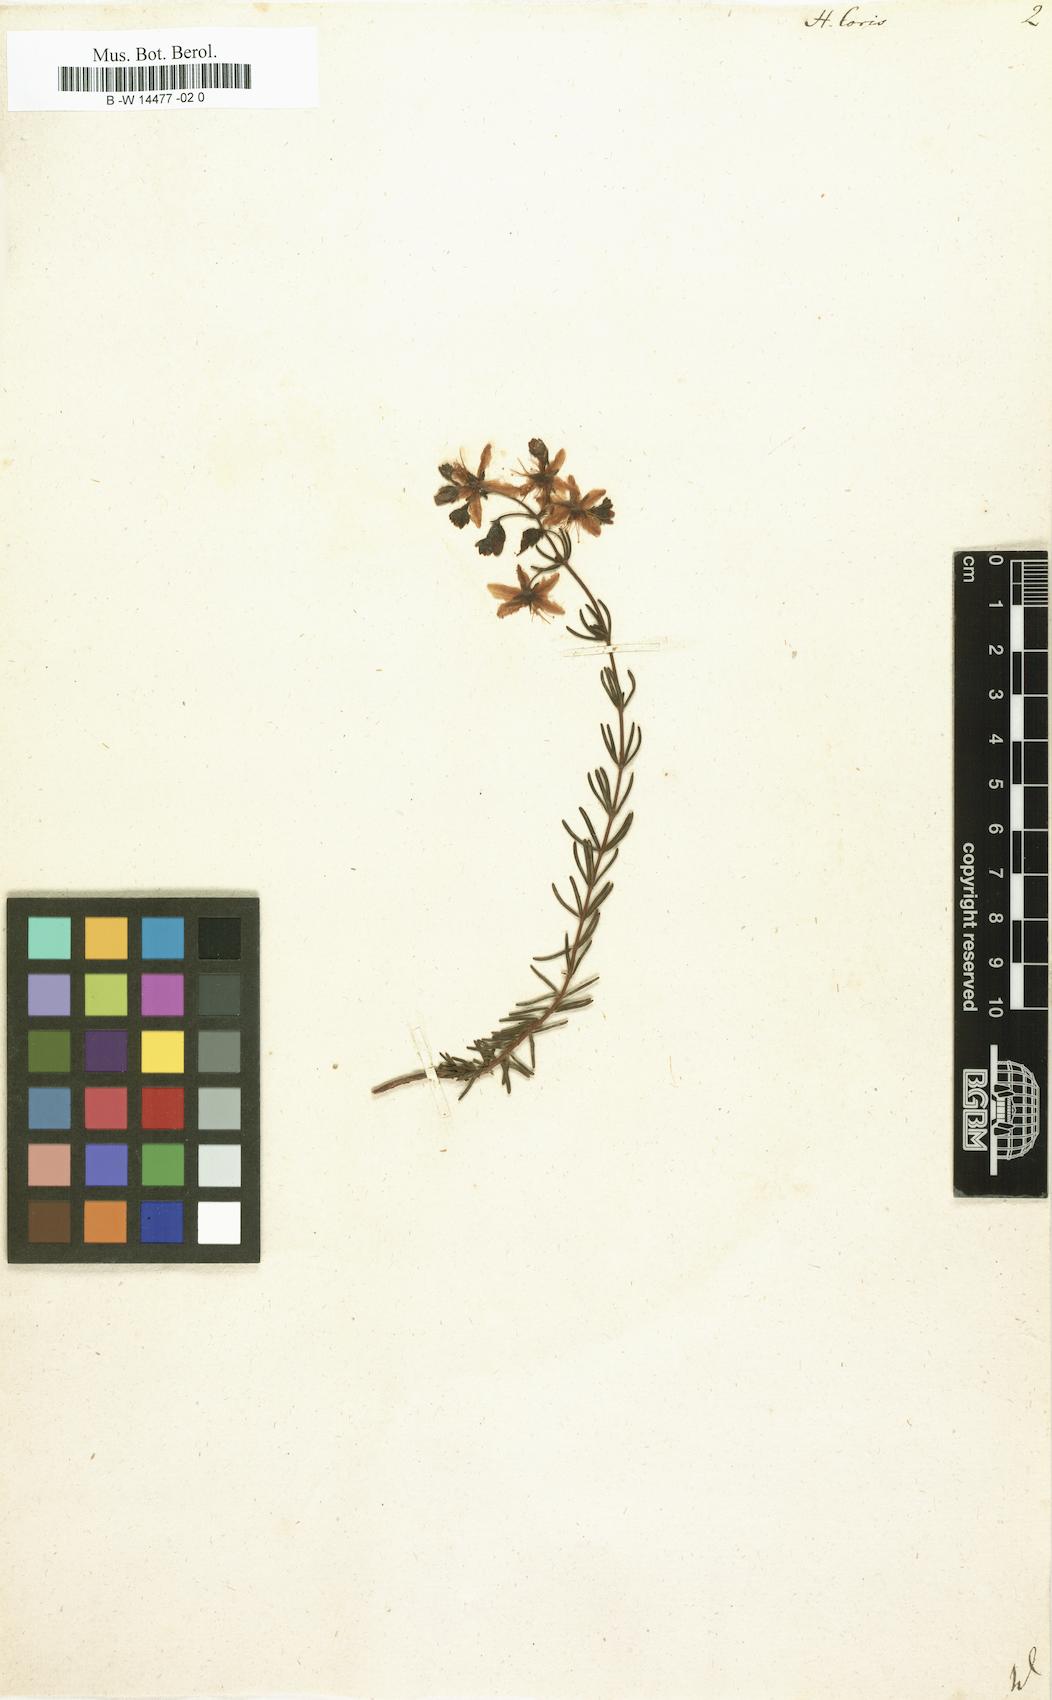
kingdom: Plantae
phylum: Tracheophyta
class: Magnoliopsida
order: Malpighiales
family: Hypericaceae
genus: Hypericum
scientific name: Hypericum coris
